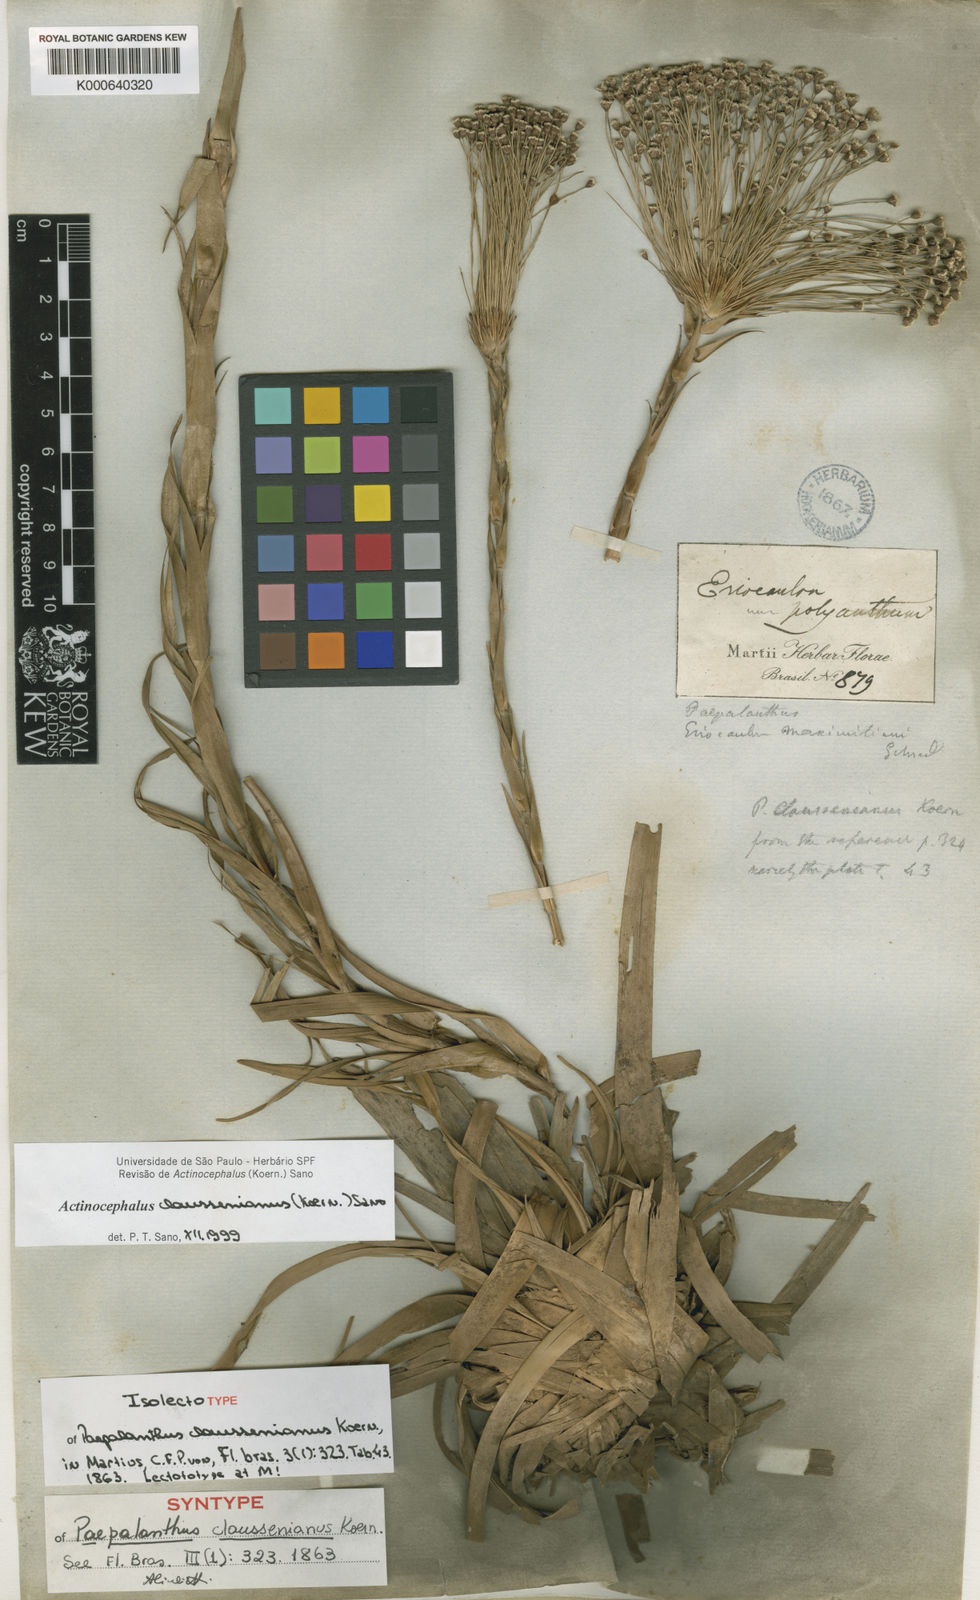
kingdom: Plantae
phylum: Tracheophyta
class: Liliopsida
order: Poales
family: Eriocaulaceae
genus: Paepalanthus
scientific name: Paepalanthus
